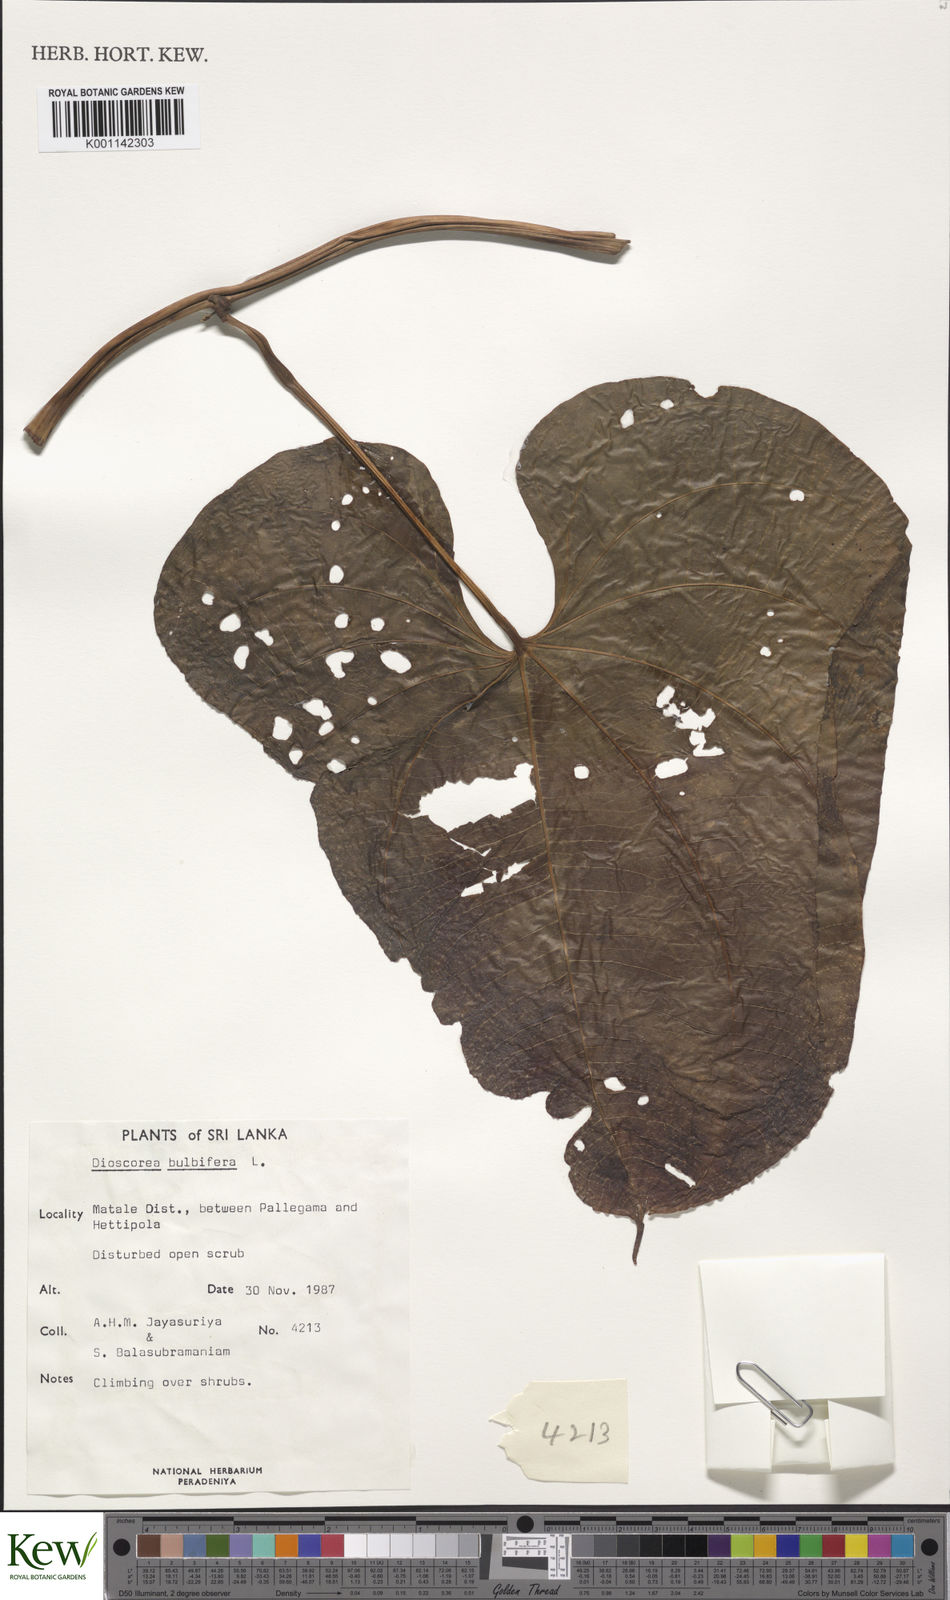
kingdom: Plantae
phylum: Tracheophyta
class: Liliopsida
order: Dioscoreales
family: Dioscoreaceae
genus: Dioscorea
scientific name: Dioscorea bulbifera
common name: Air yam
